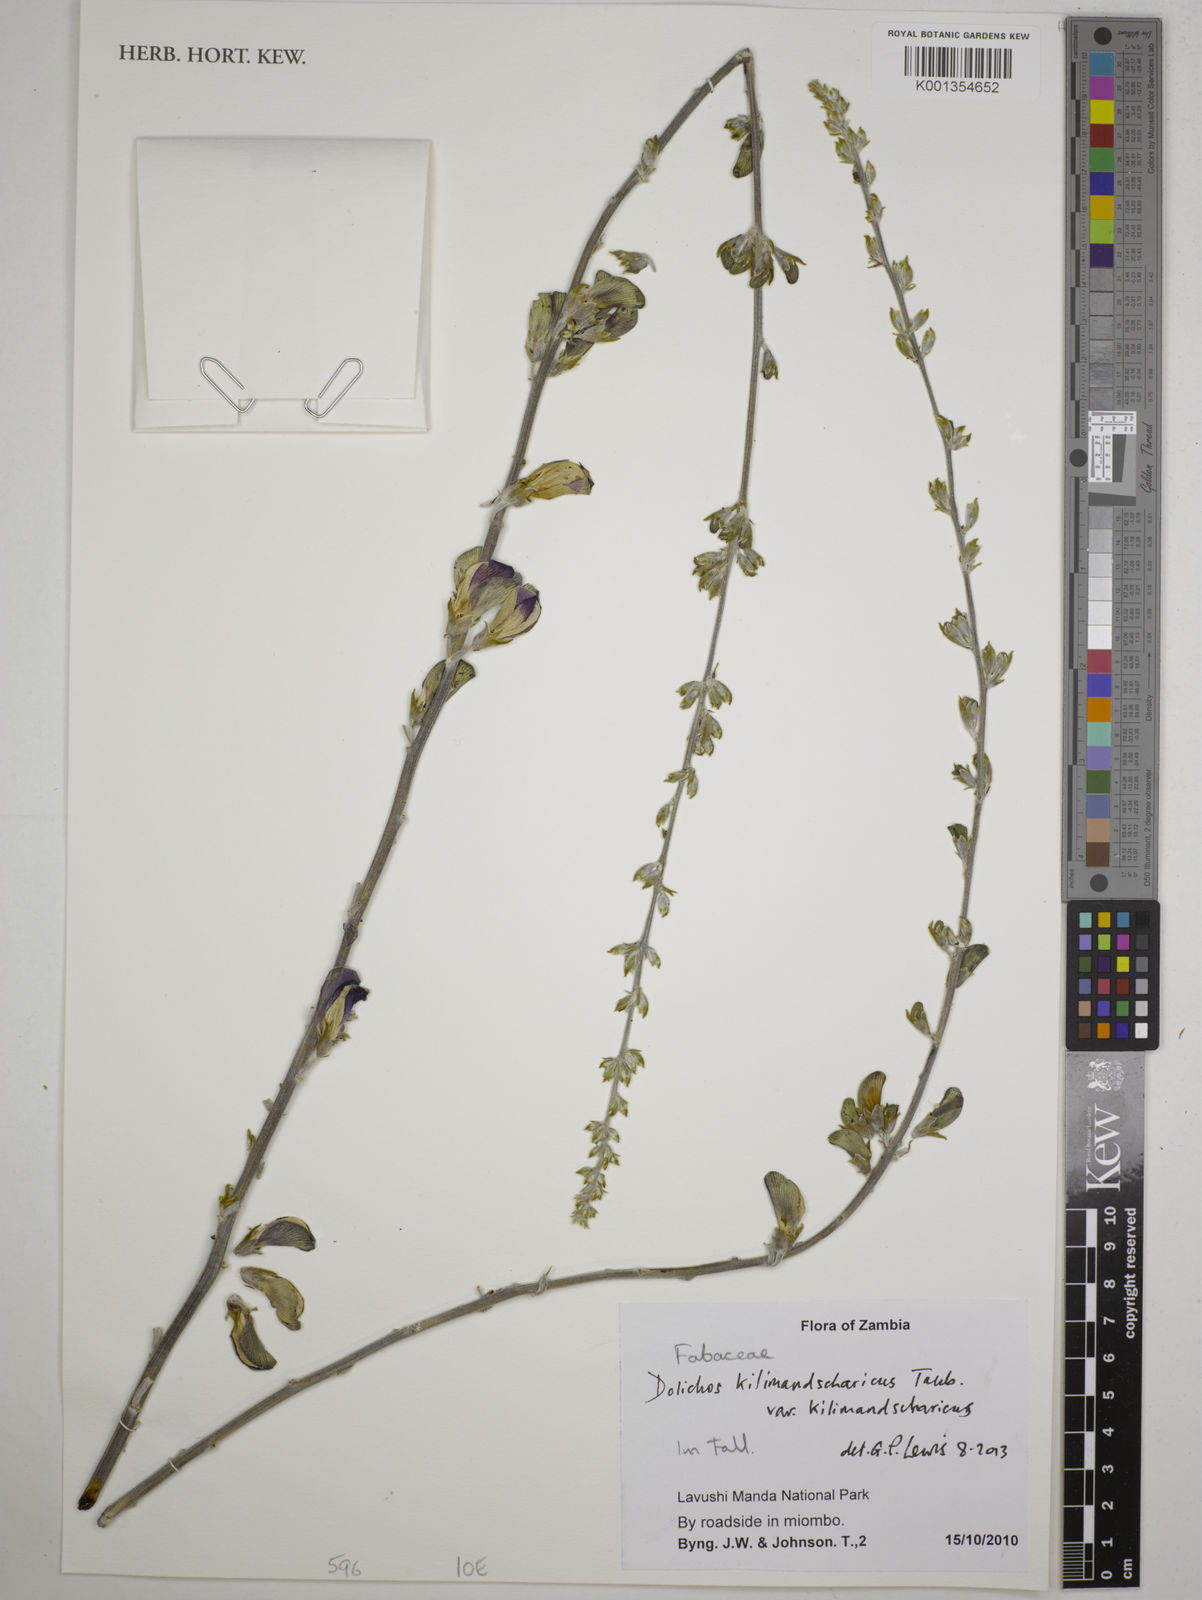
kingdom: Plantae
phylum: Tracheophyta
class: Magnoliopsida
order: Fabales
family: Fabaceae
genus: Dolichos
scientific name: Dolichos
